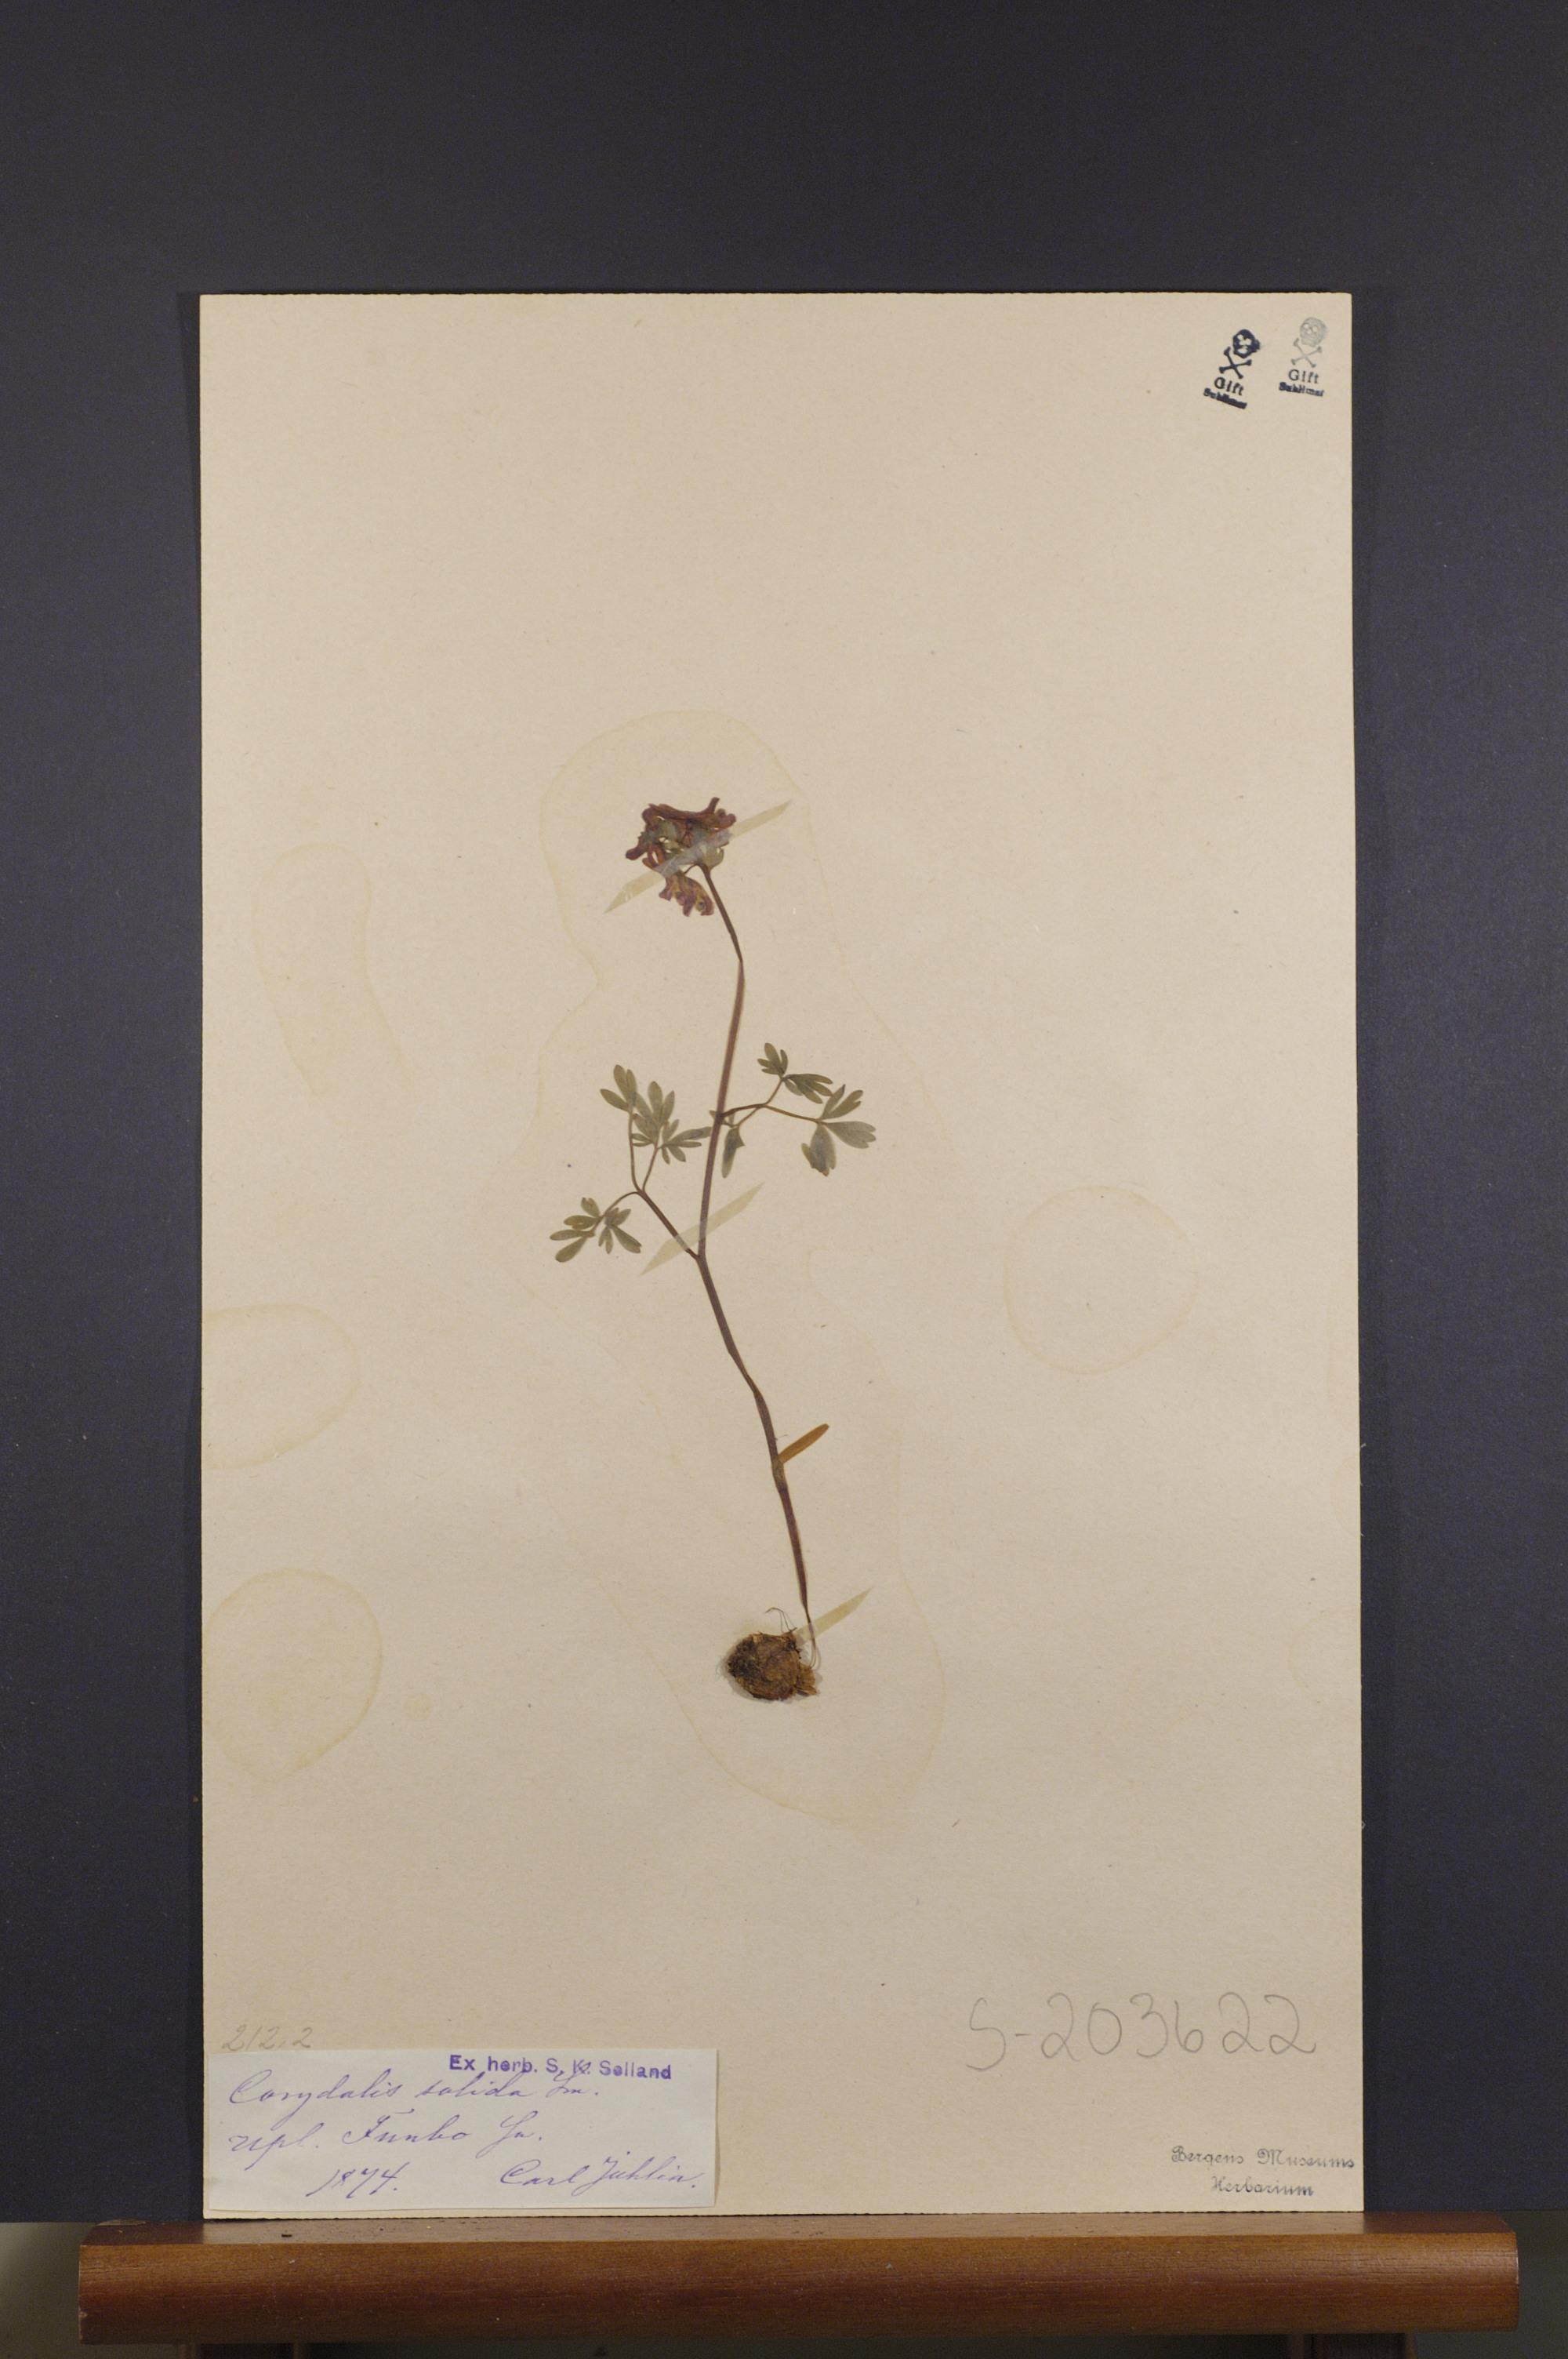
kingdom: Plantae
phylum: Tracheophyta
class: Magnoliopsida
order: Ranunculales
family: Papaveraceae
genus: Corydalis
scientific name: Corydalis solida
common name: Bird-in-a-bush
